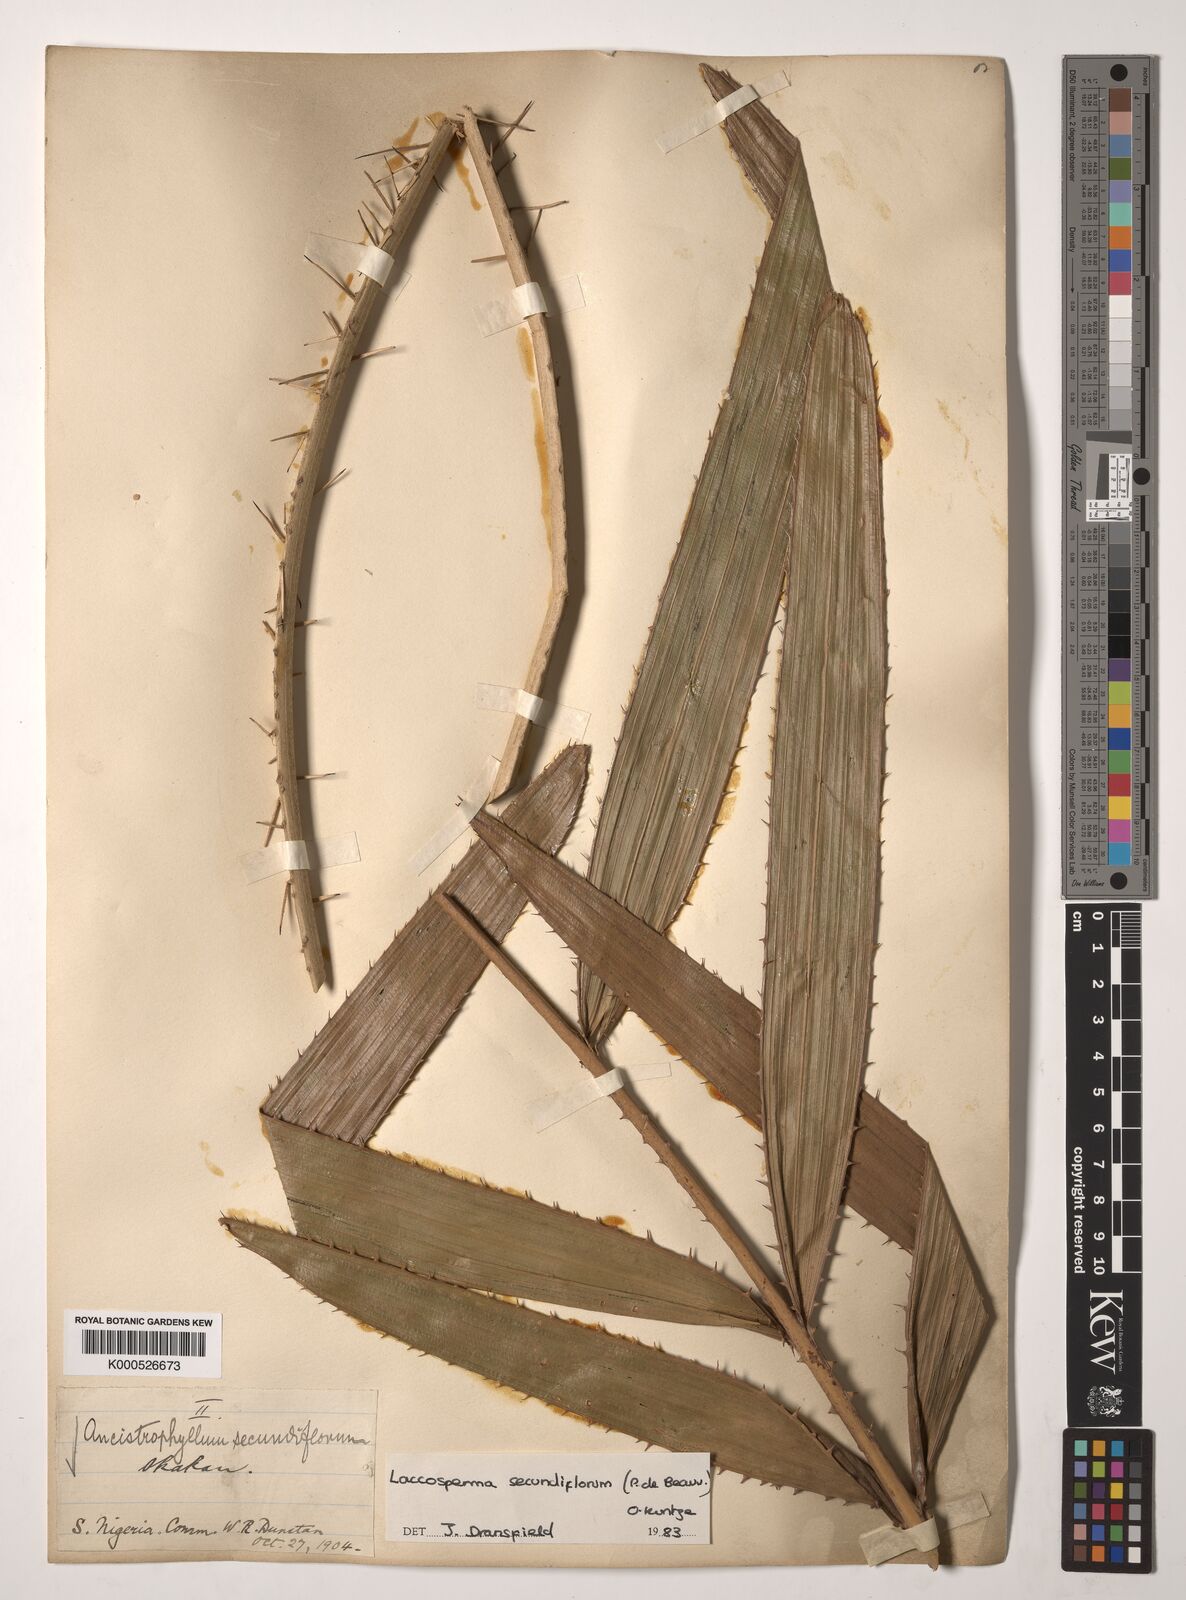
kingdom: Plantae
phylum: Tracheophyta
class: Liliopsida
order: Arecales
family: Arecaceae
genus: Laccosperma
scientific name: Laccosperma secundiflorum
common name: Rattan
